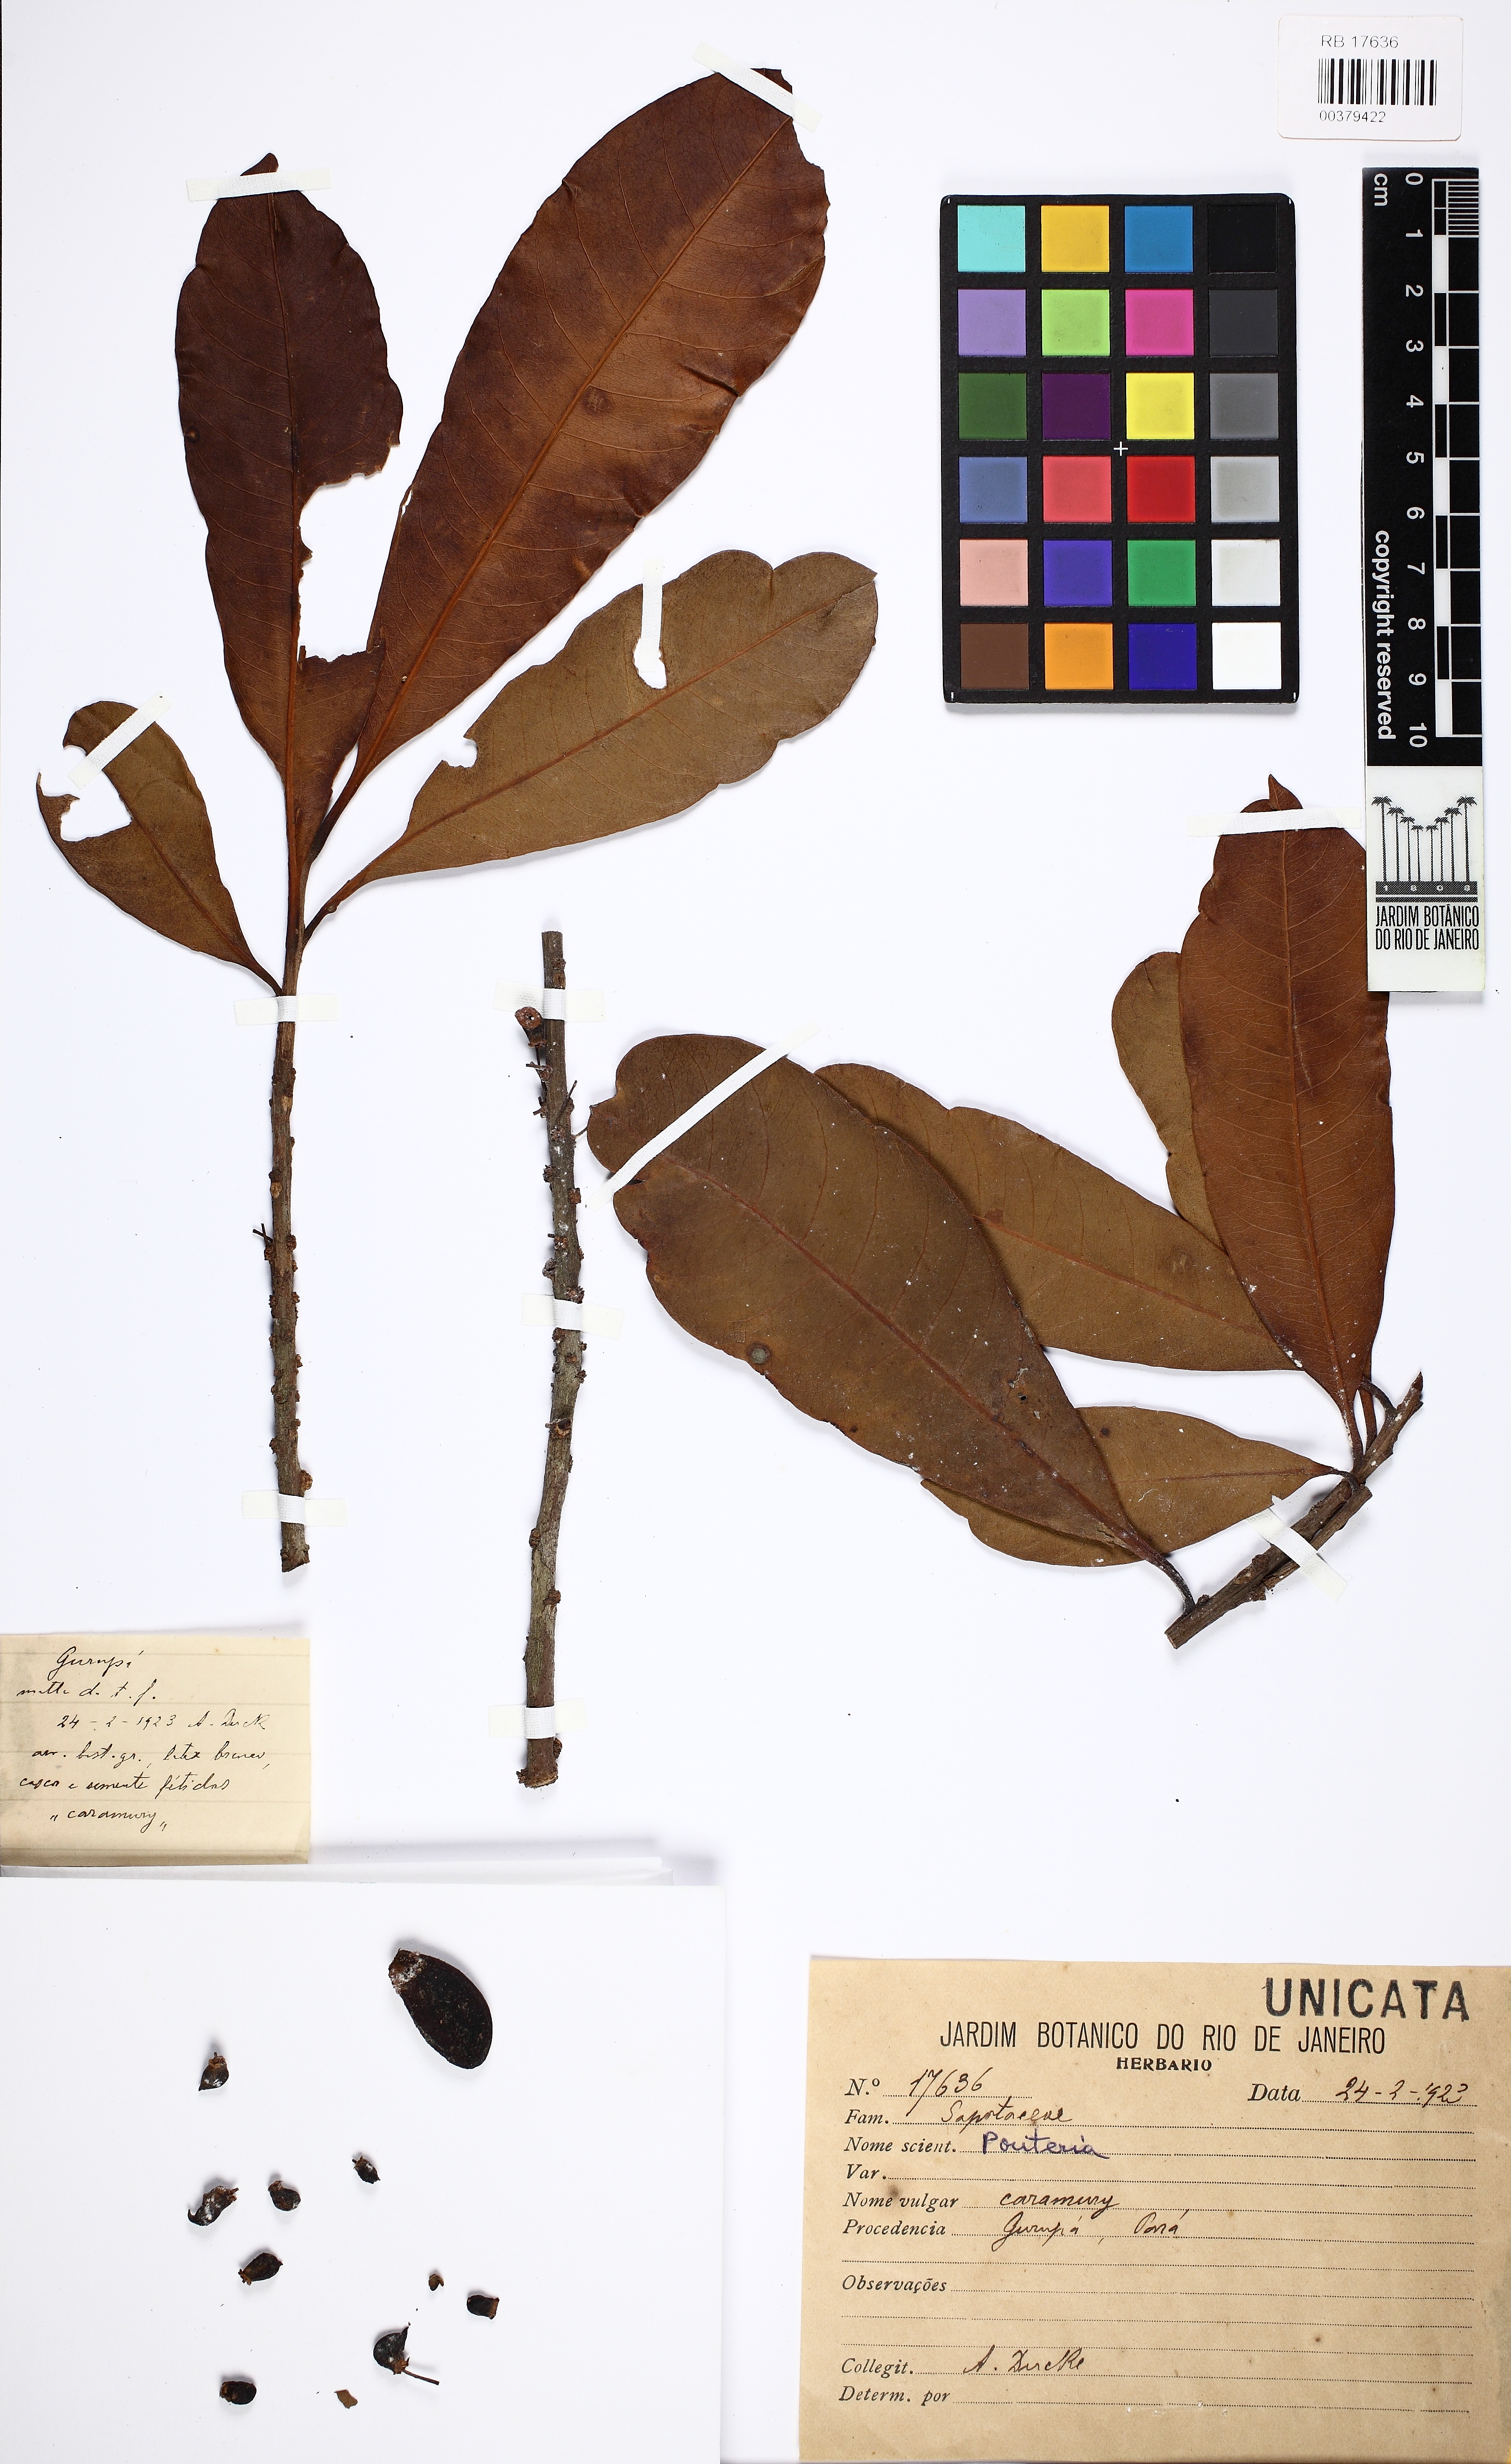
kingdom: Plantae
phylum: Tracheophyta
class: Magnoliopsida
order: Ericales
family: Sapotaceae
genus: Pouteria
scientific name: Pouteria
